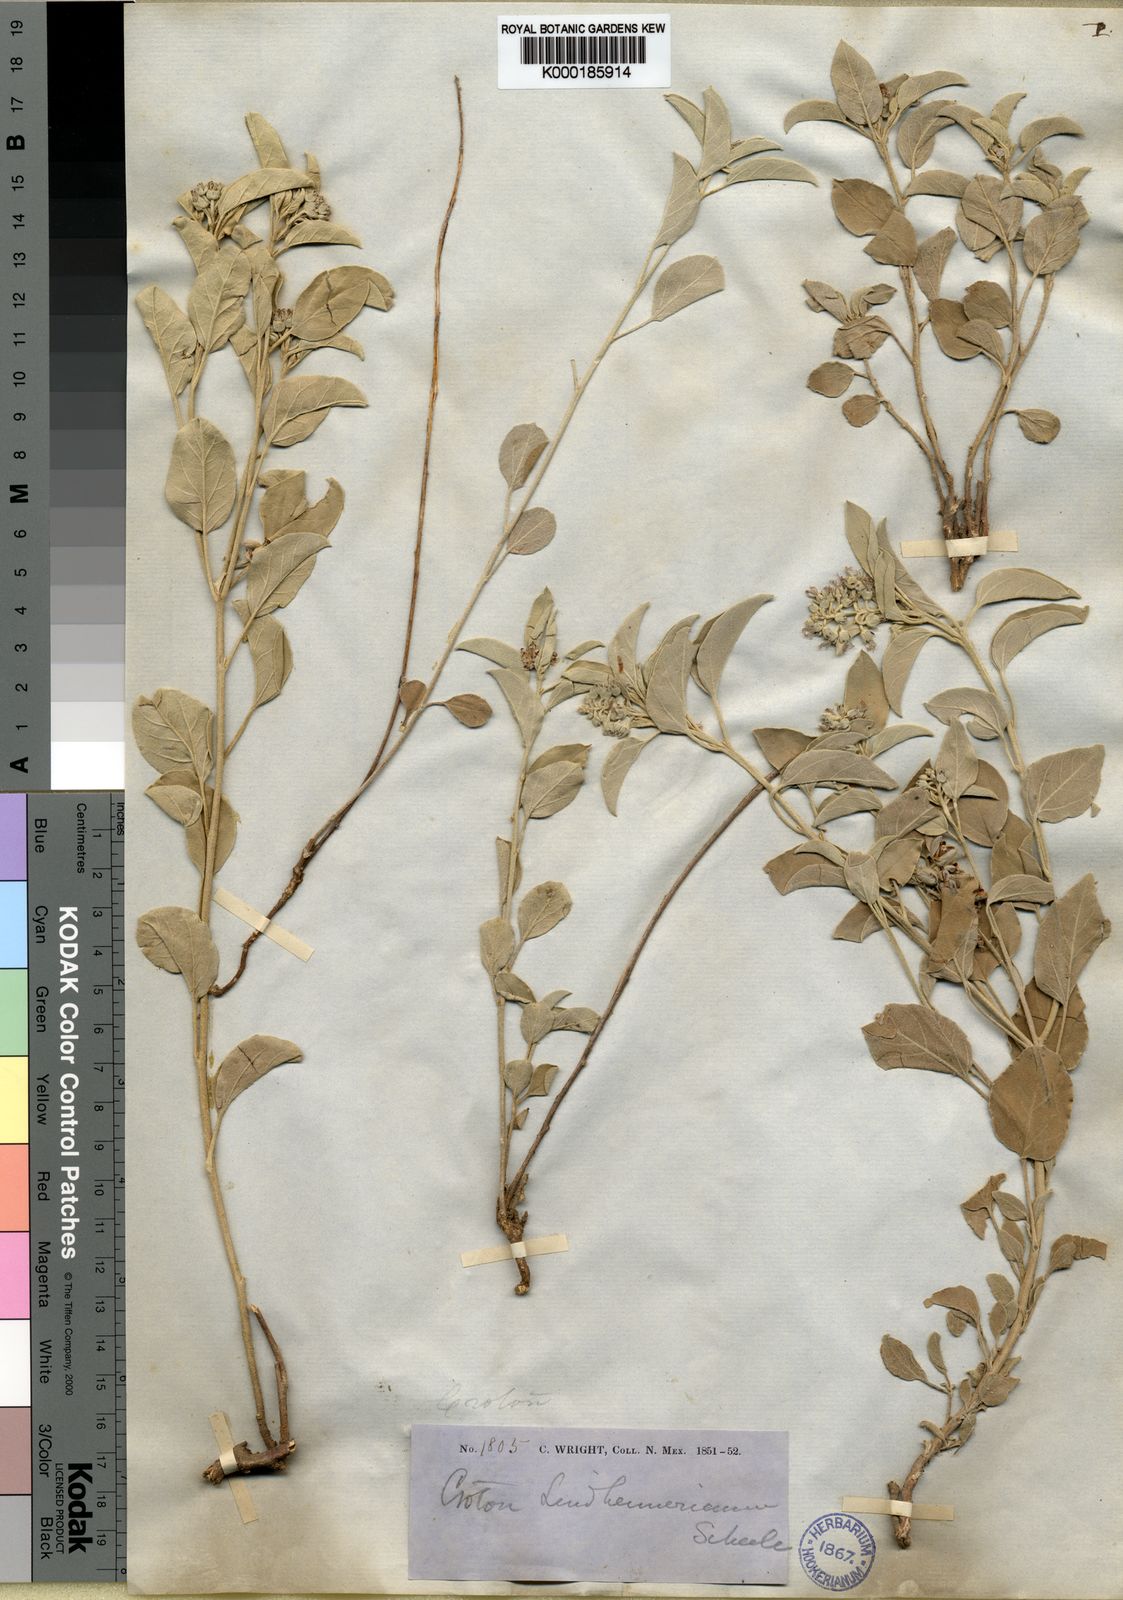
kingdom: Plantae
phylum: Tracheophyta
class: Magnoliopsida
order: Malpighiales
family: Euphorbiaceae
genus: Croton
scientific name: Croton lindheimerianus
